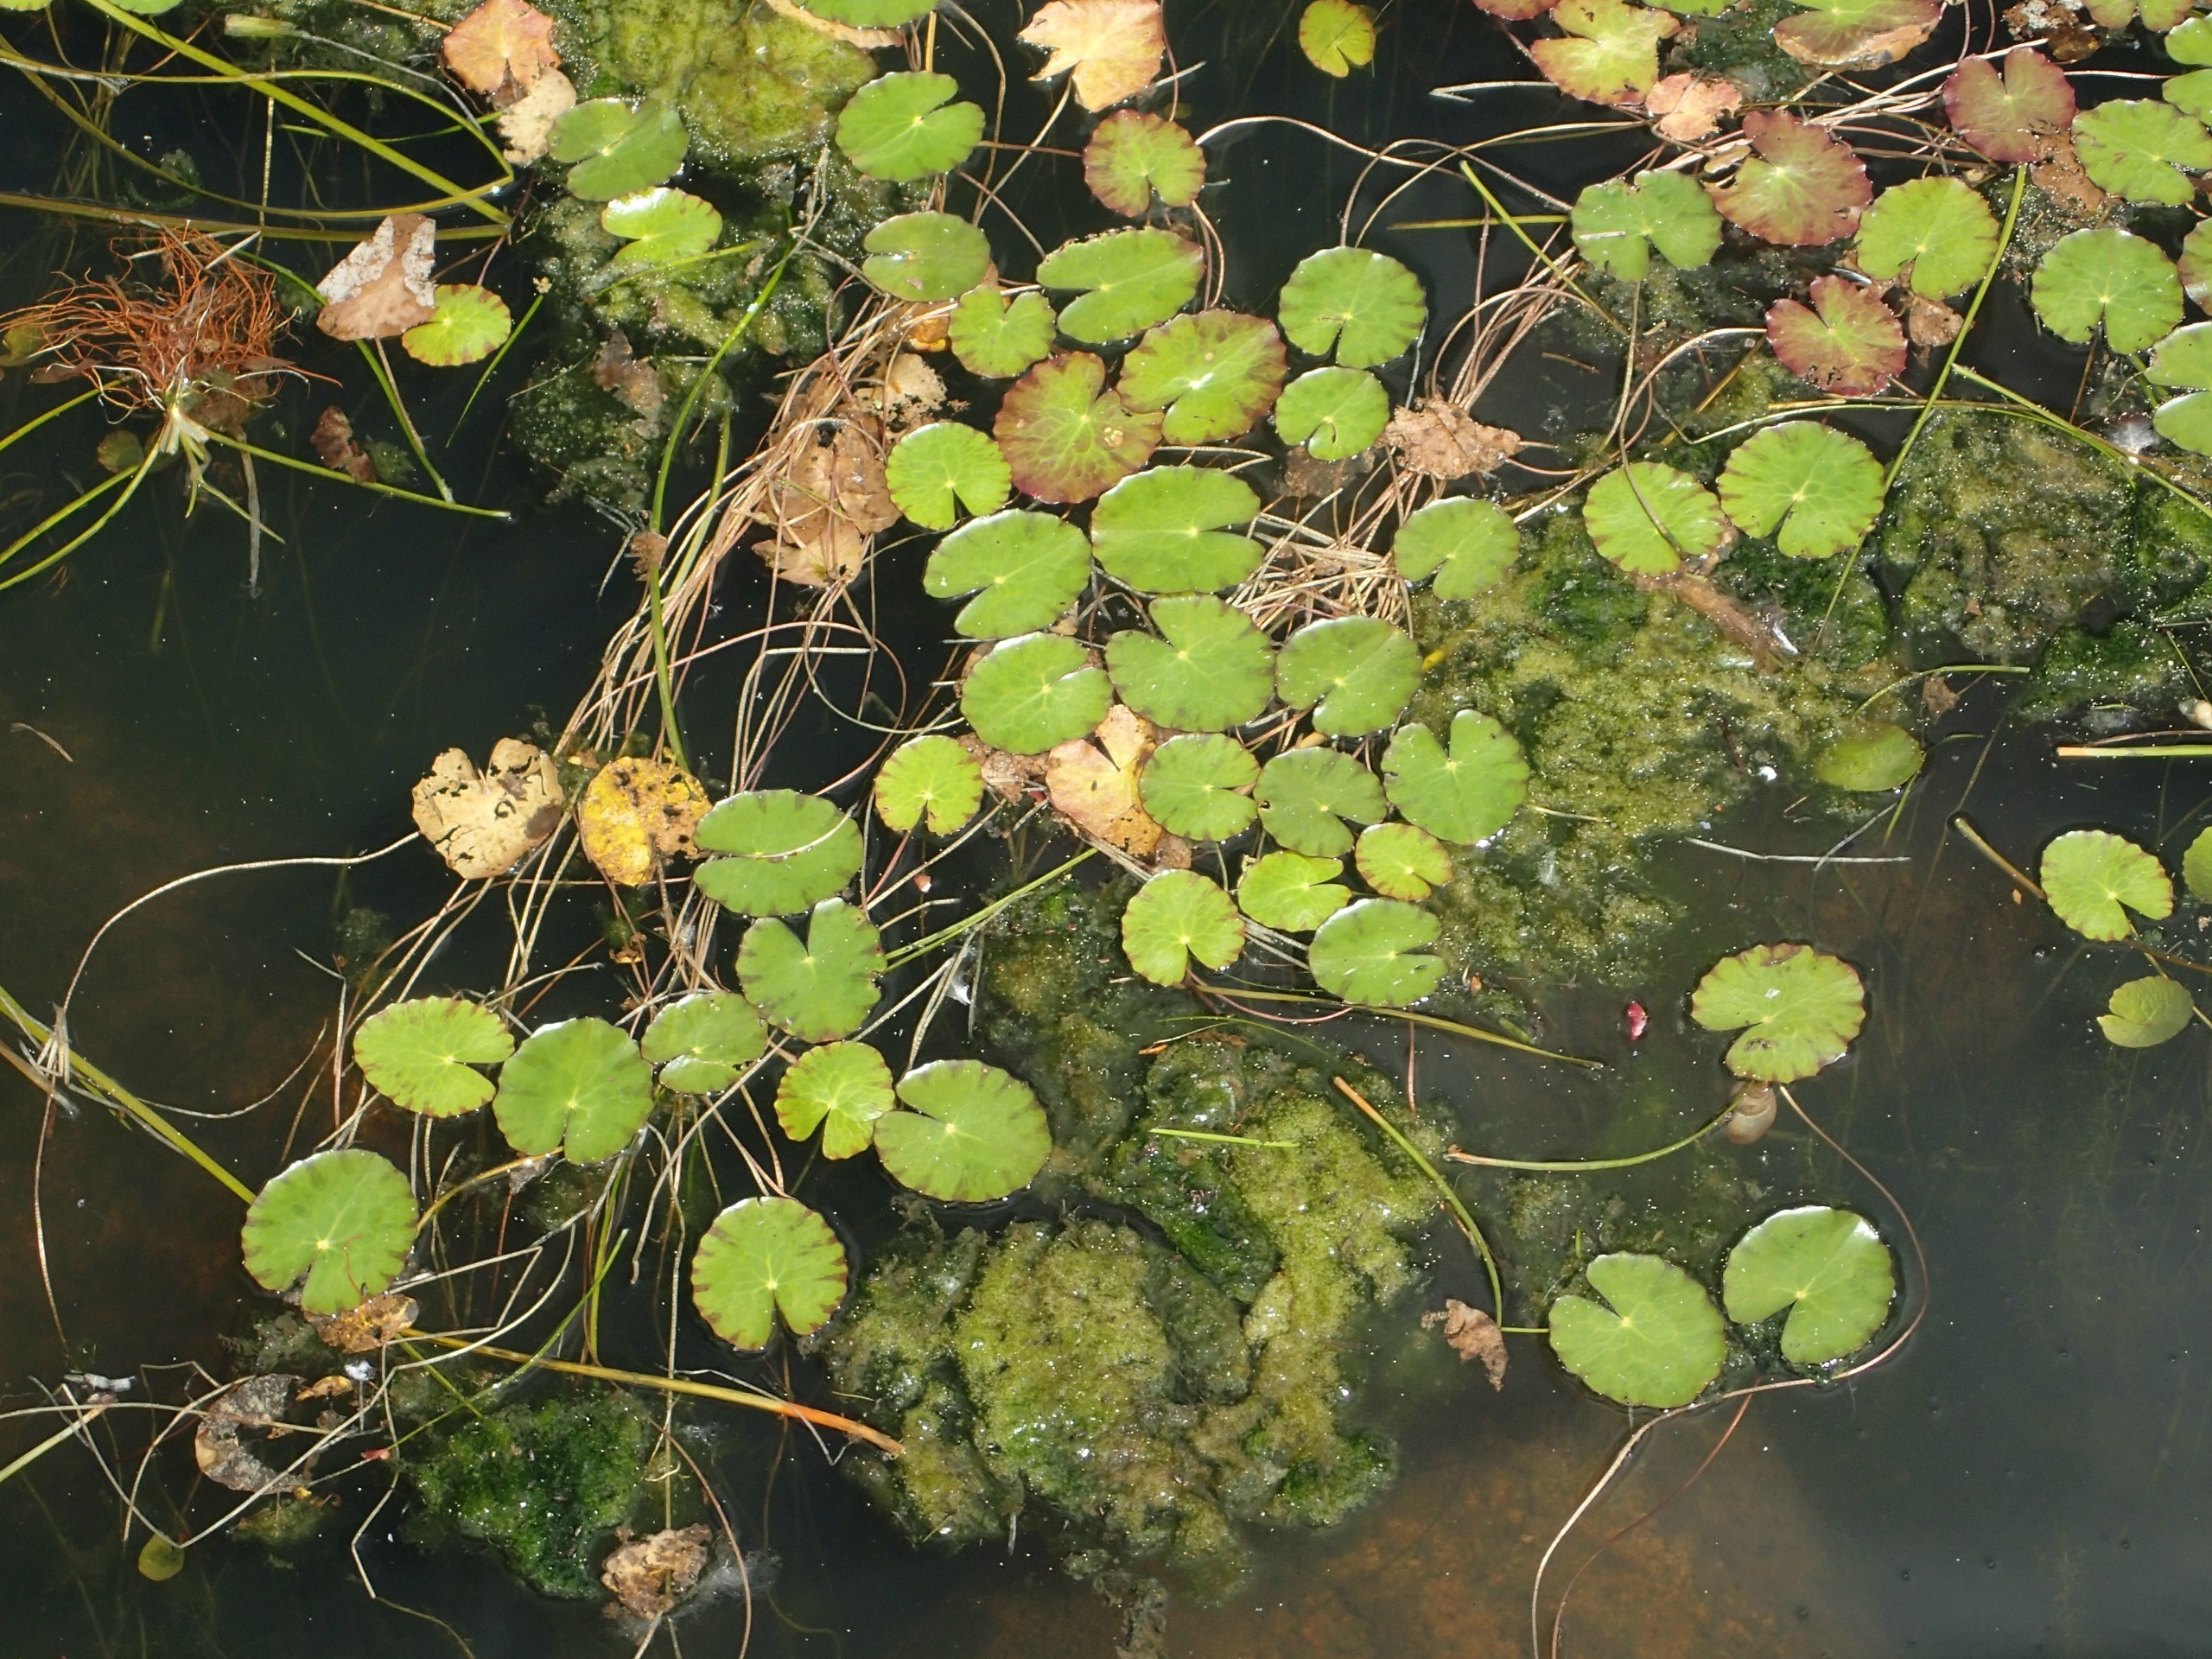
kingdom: Plantae
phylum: Tracheophyta
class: Magnoliopsida
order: Asterales
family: Menyanthaceae
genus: Nymphoides
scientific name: Nymphoides peltata
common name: Søblad
